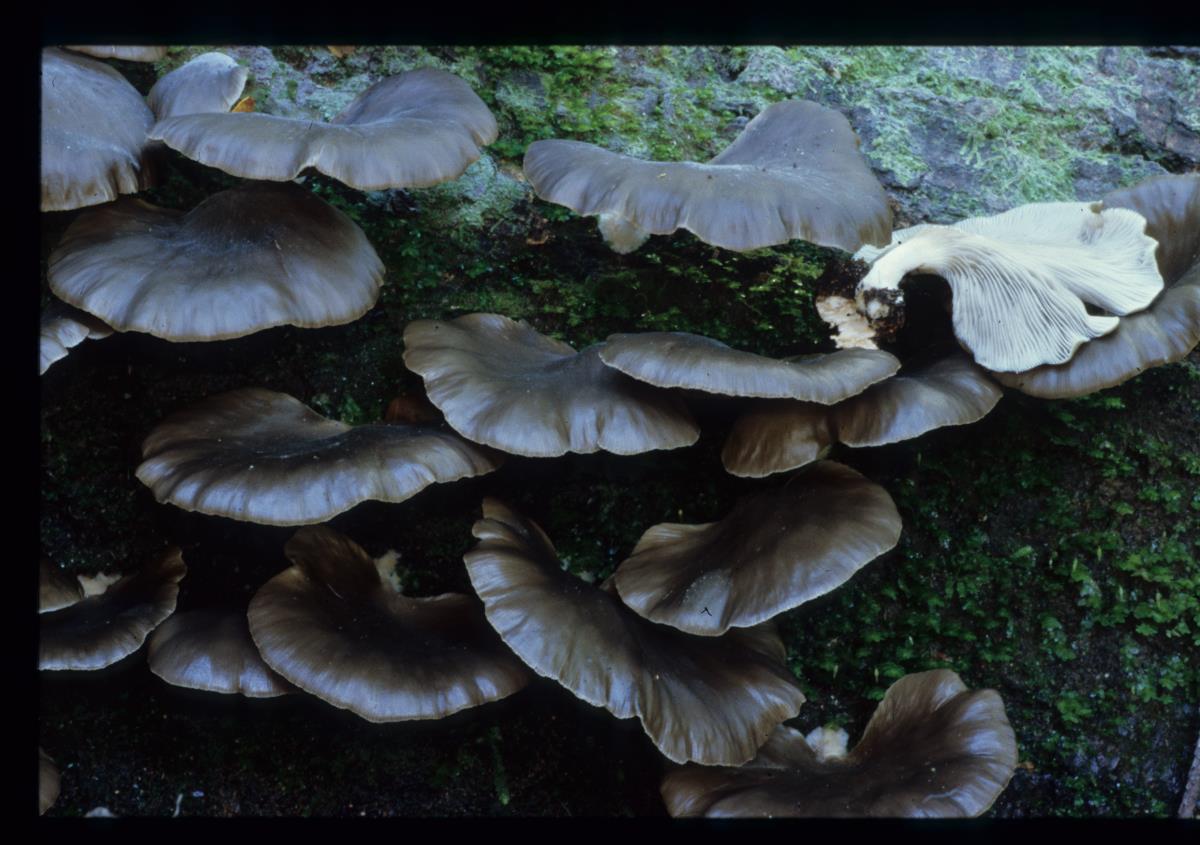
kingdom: Fungi
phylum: Basidiomycota
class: Agaricomycetes
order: Agaricales
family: Pleurotaceae
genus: Pleurotus
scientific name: Pleurotus purpureo-olivaceus
